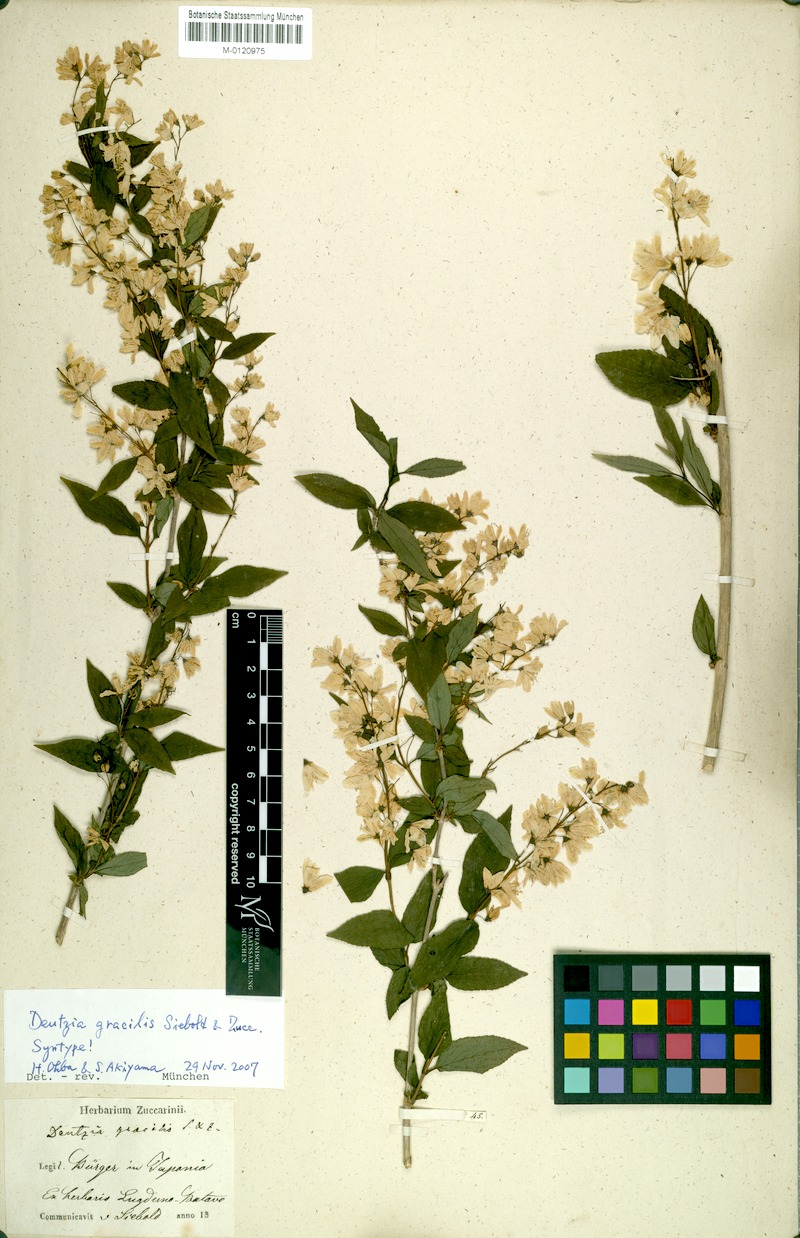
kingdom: Plantae
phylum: Tracheophyta
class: Magnoliopsida
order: Cornales
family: Hydrangeaceae
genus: Deutzia
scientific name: Deutzia gracilis
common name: Slender pride of rochester
